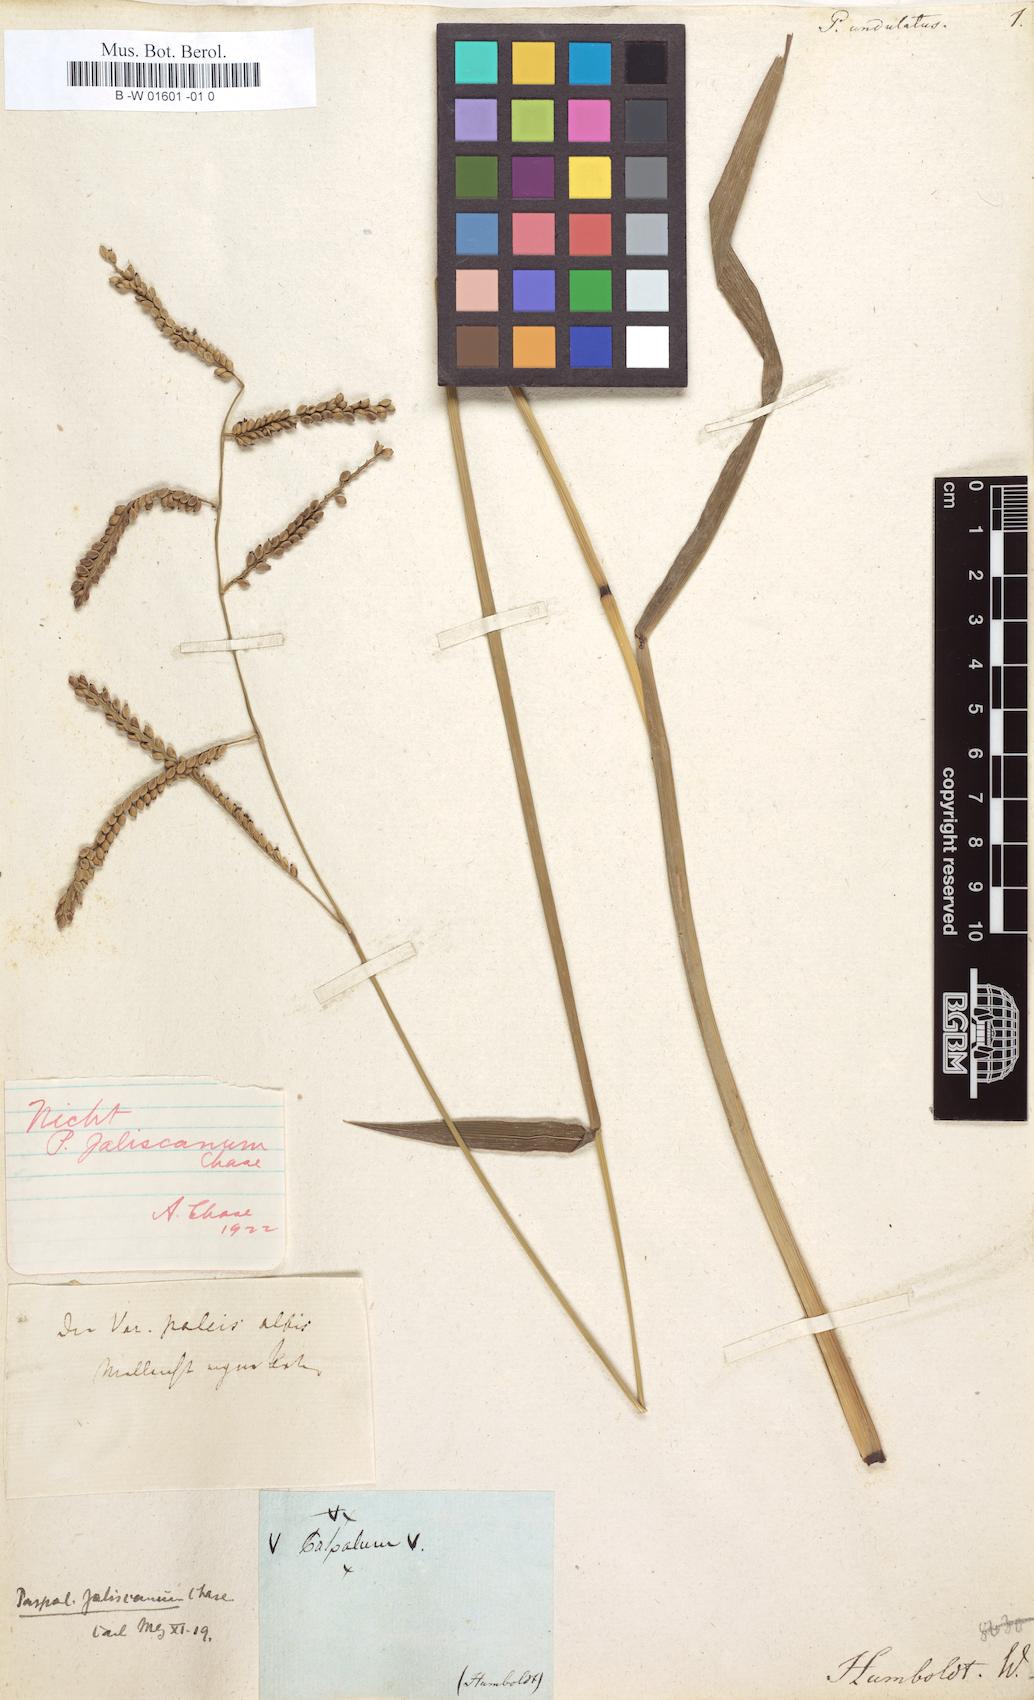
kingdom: Plantae
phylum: Tracheophyta
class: Liliopsida
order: Poales
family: Poaceae
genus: Paspalum
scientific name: Paspalum plicatulum
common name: Top paspalum
